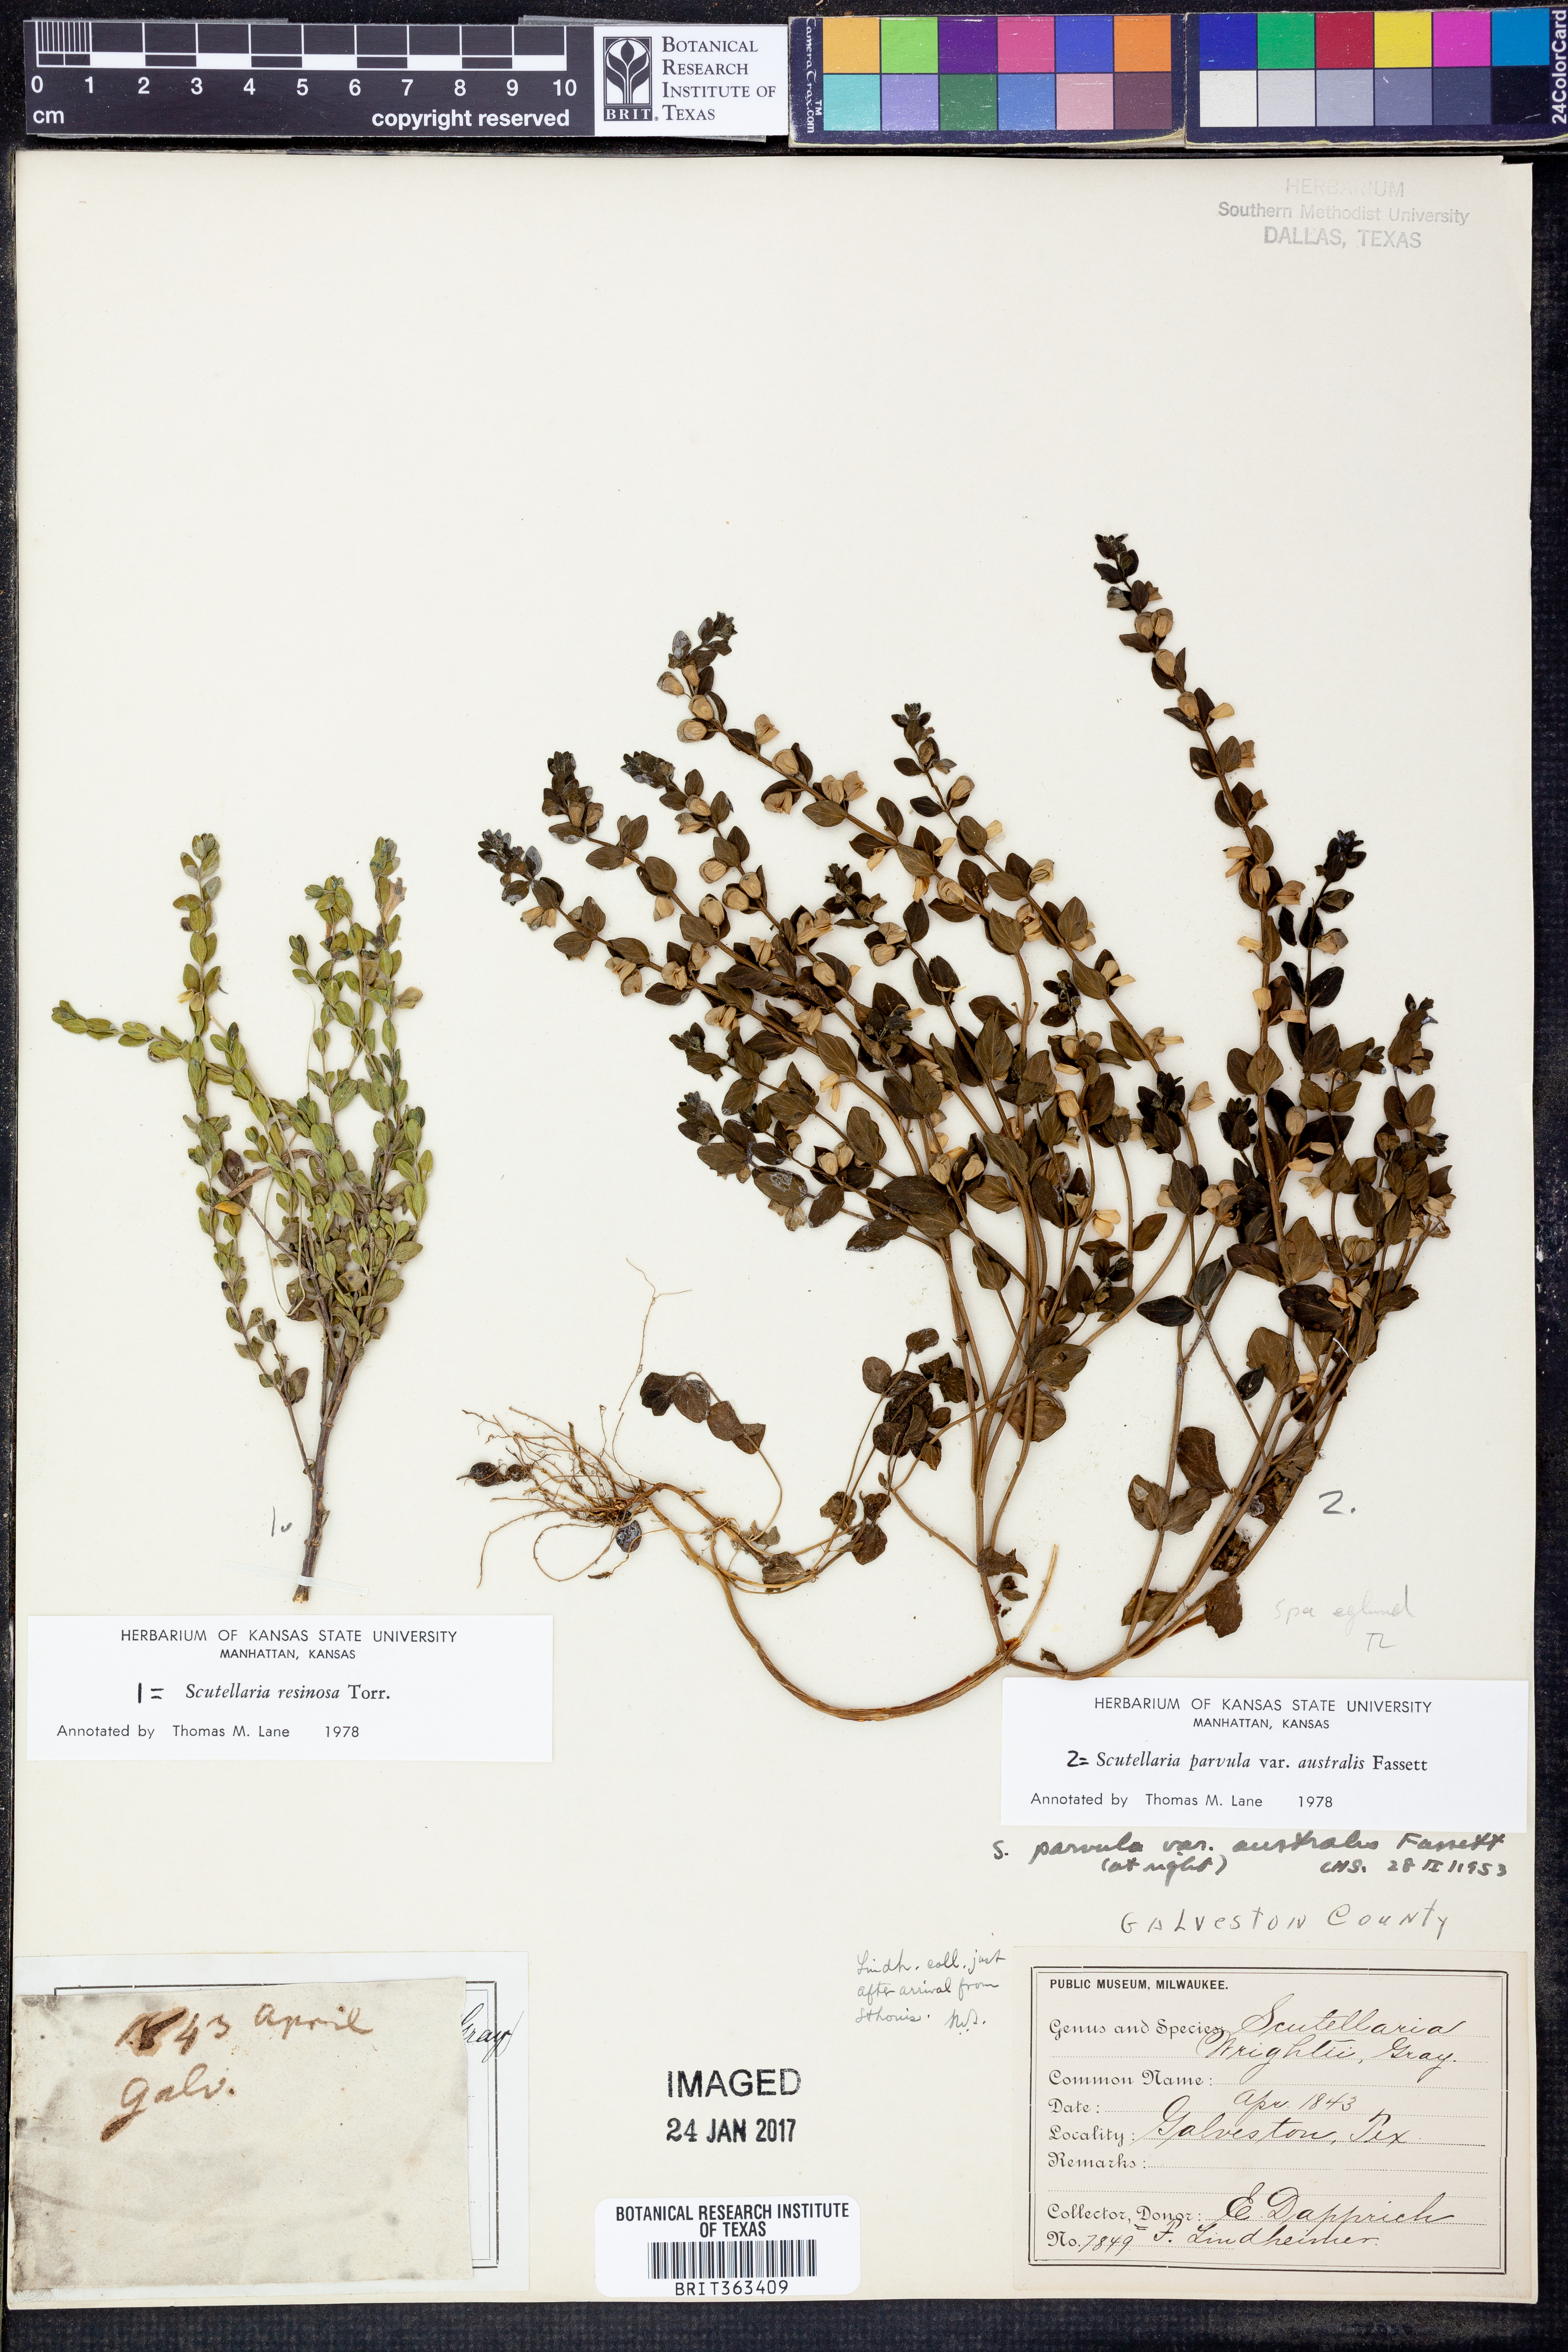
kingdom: Plantae
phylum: Tracheophyta
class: Magnoliopsida
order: Lamiales
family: Lamiaceae
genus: Scutellaria
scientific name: Scutellaria resinosa
